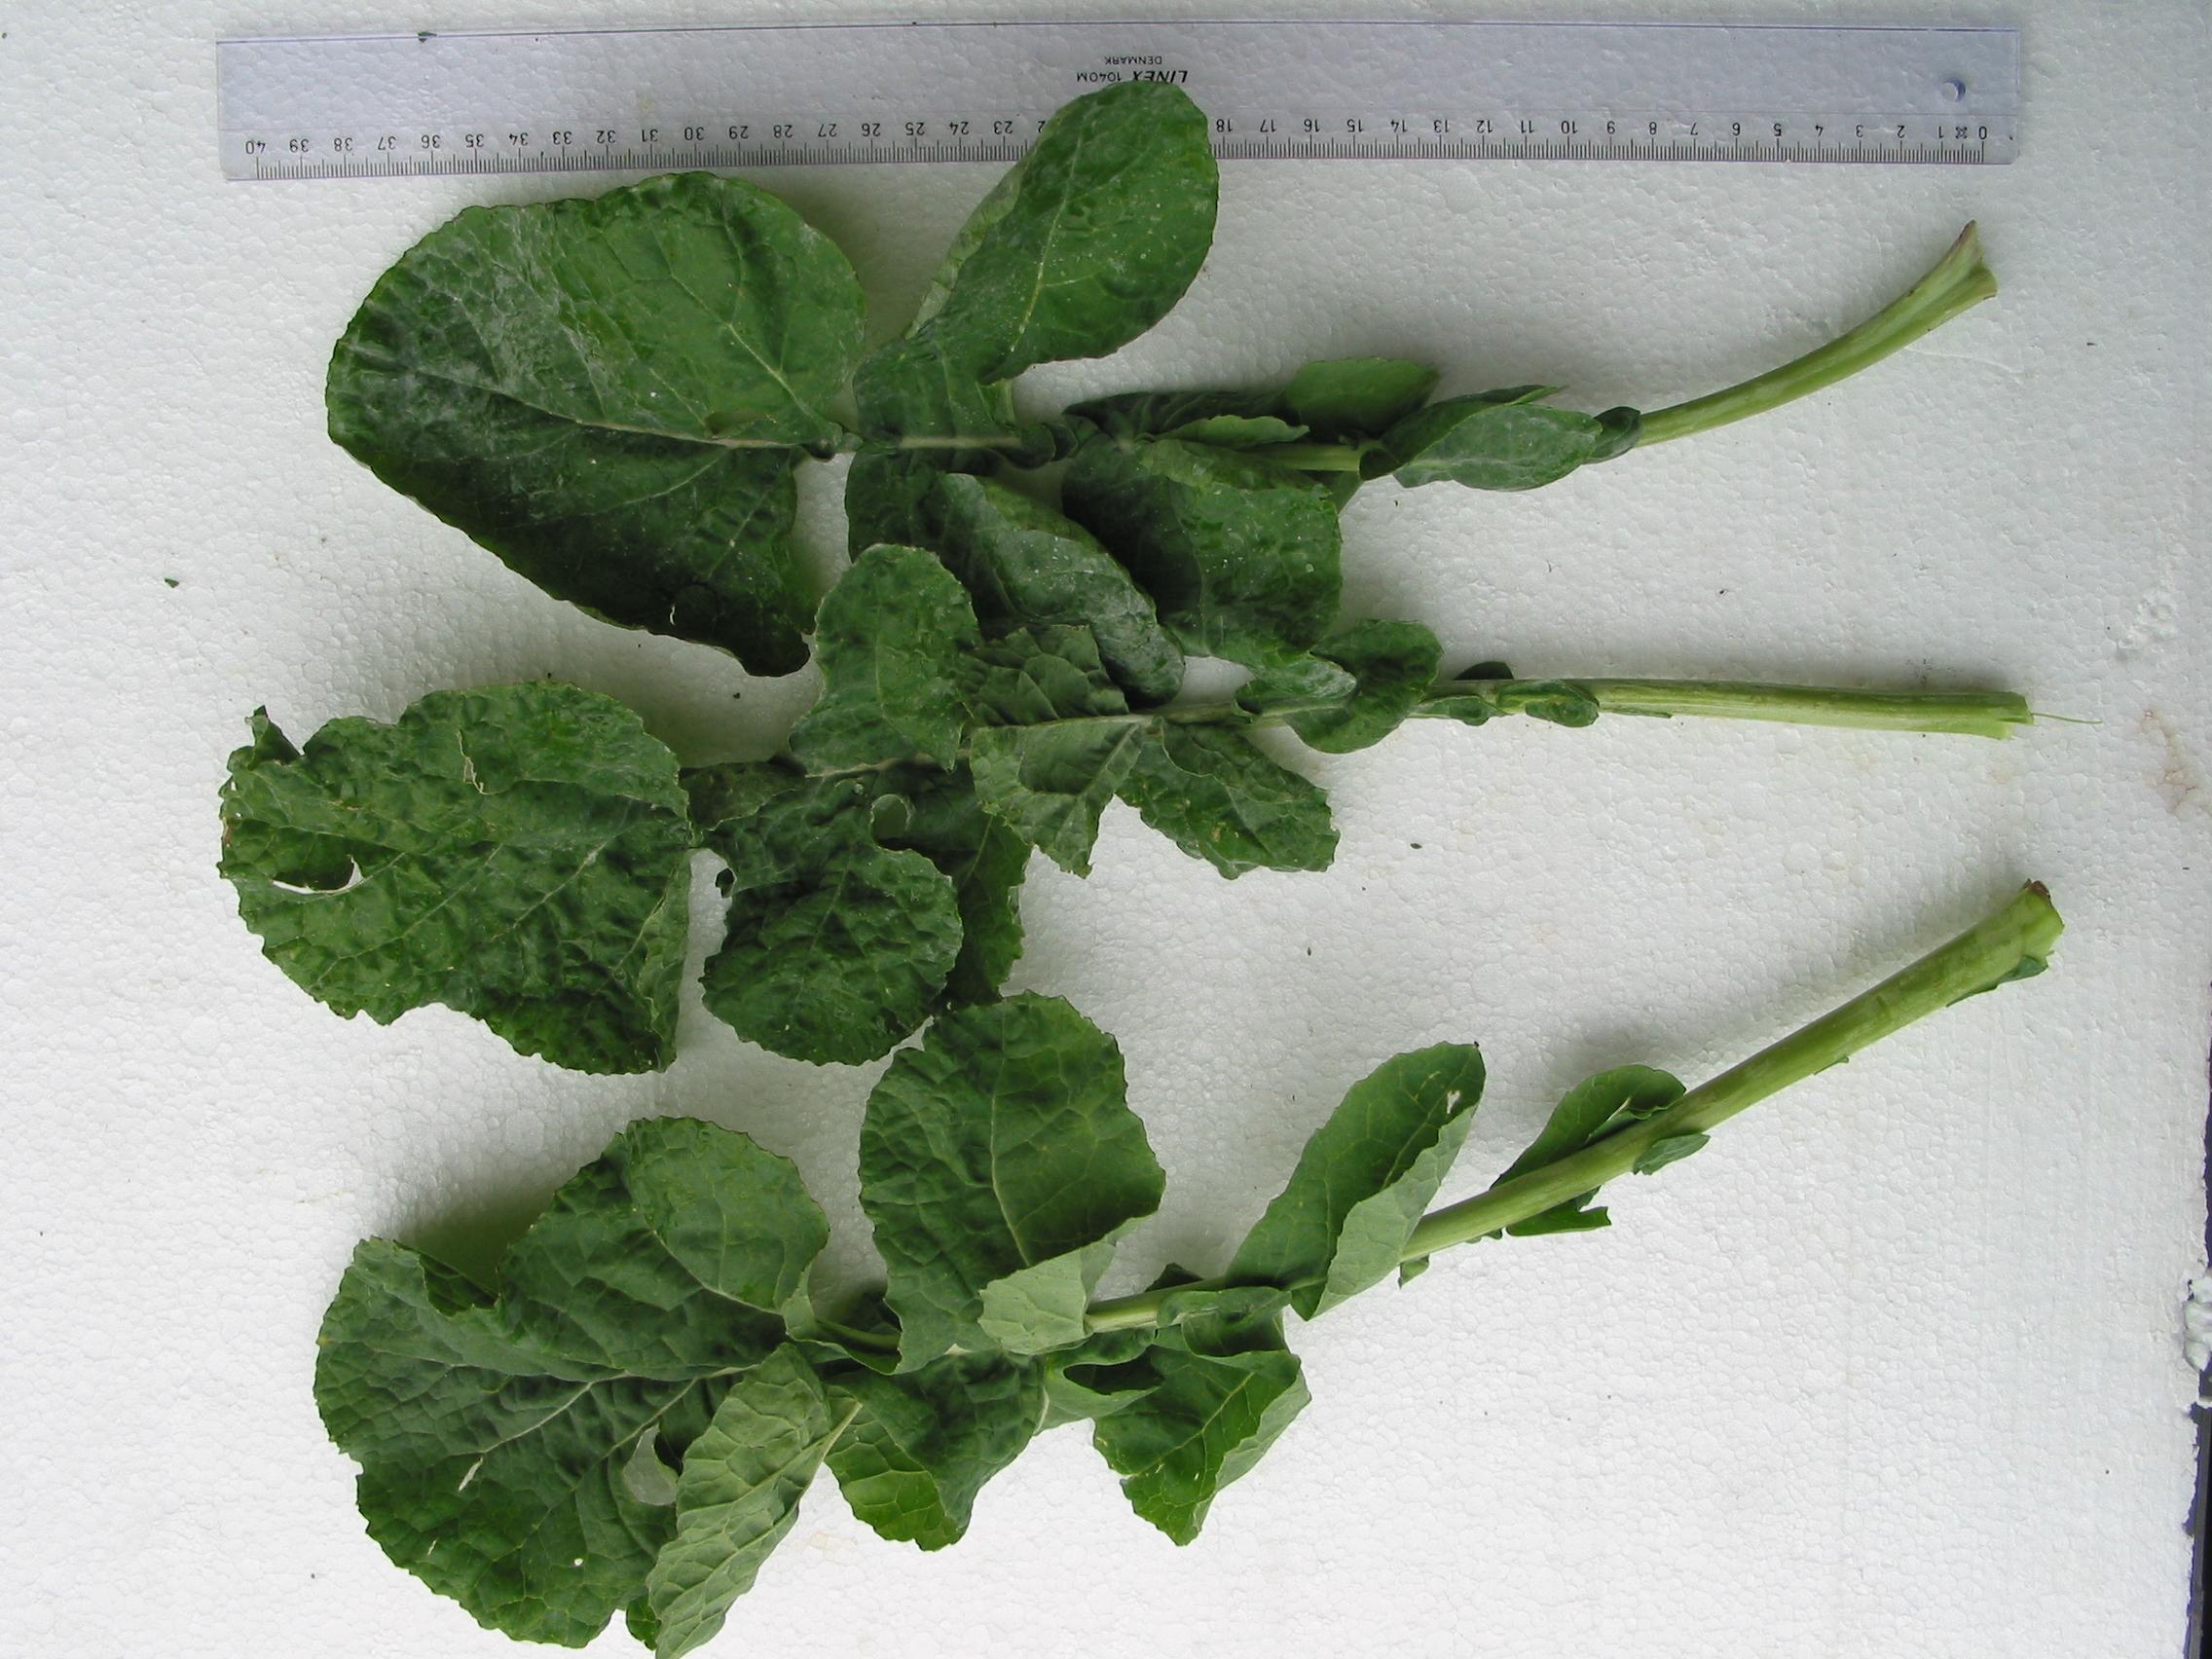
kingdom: Plantae
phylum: Tracheophyta
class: Magnoliopsida
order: Brassicales
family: Brassicaceae
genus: Brassica
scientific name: Brassica napus
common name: Rape
